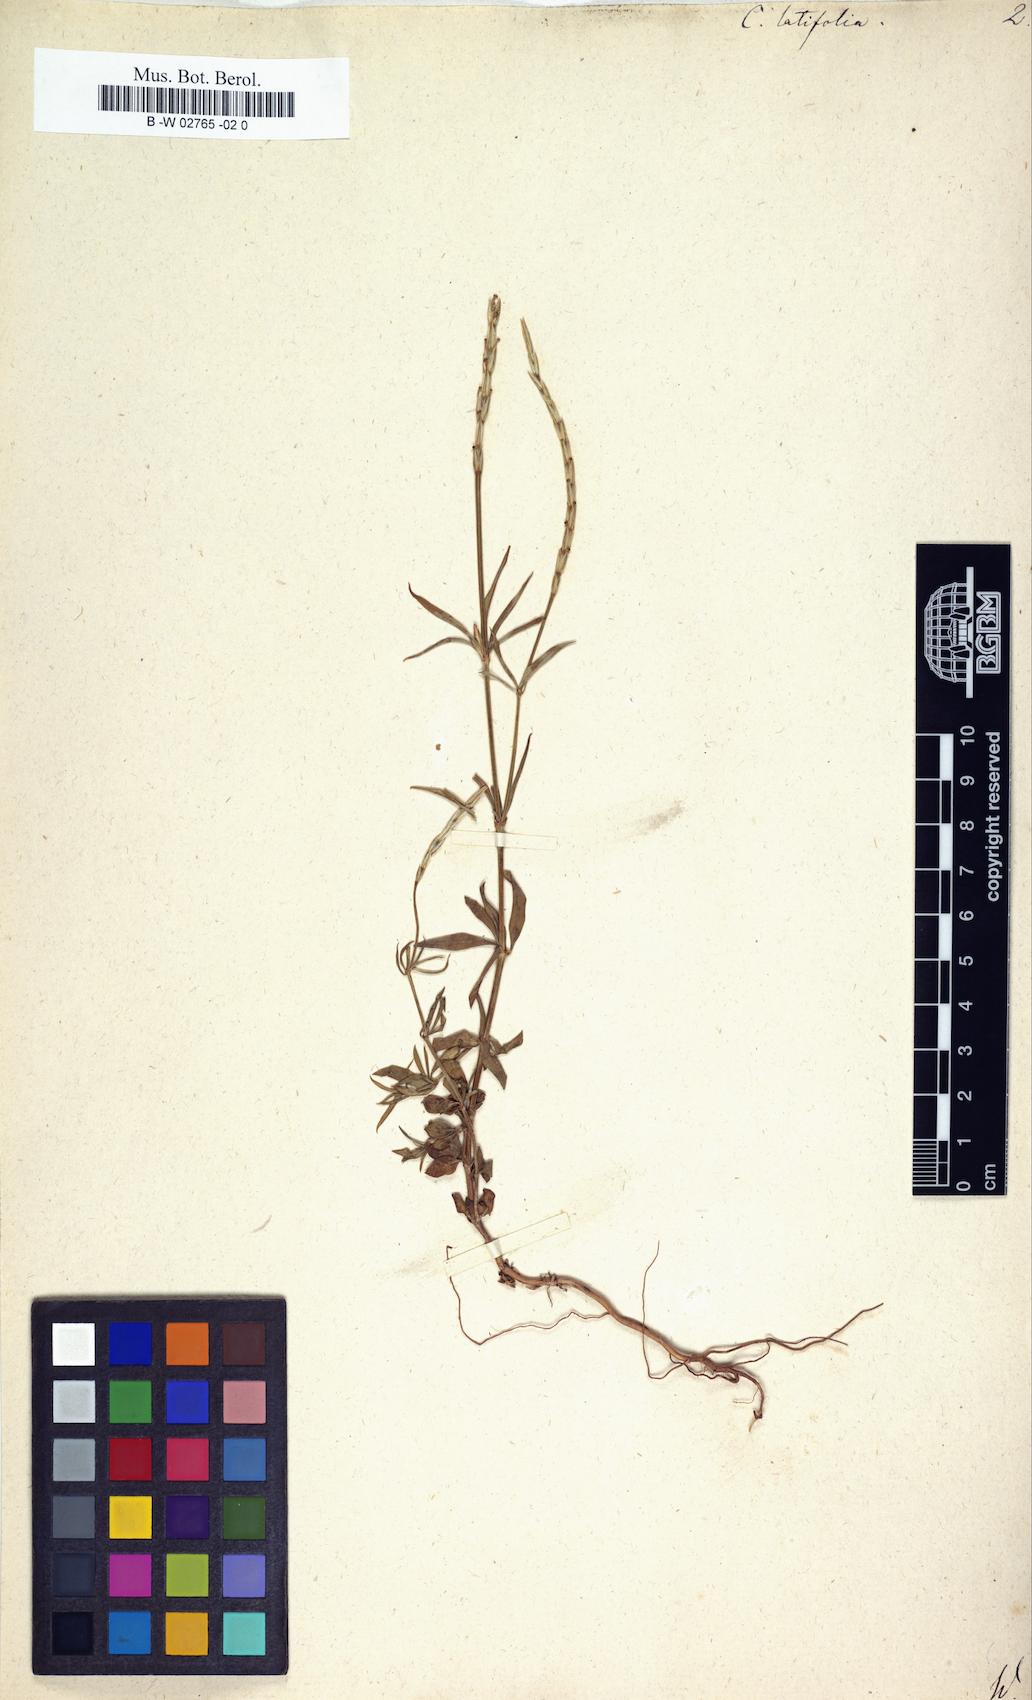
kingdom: Plantae
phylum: Tracheophyta
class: Magnoliopsida
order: Gentianales
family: Rubiaceae
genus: Crucianella
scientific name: Crucianella latifolia
